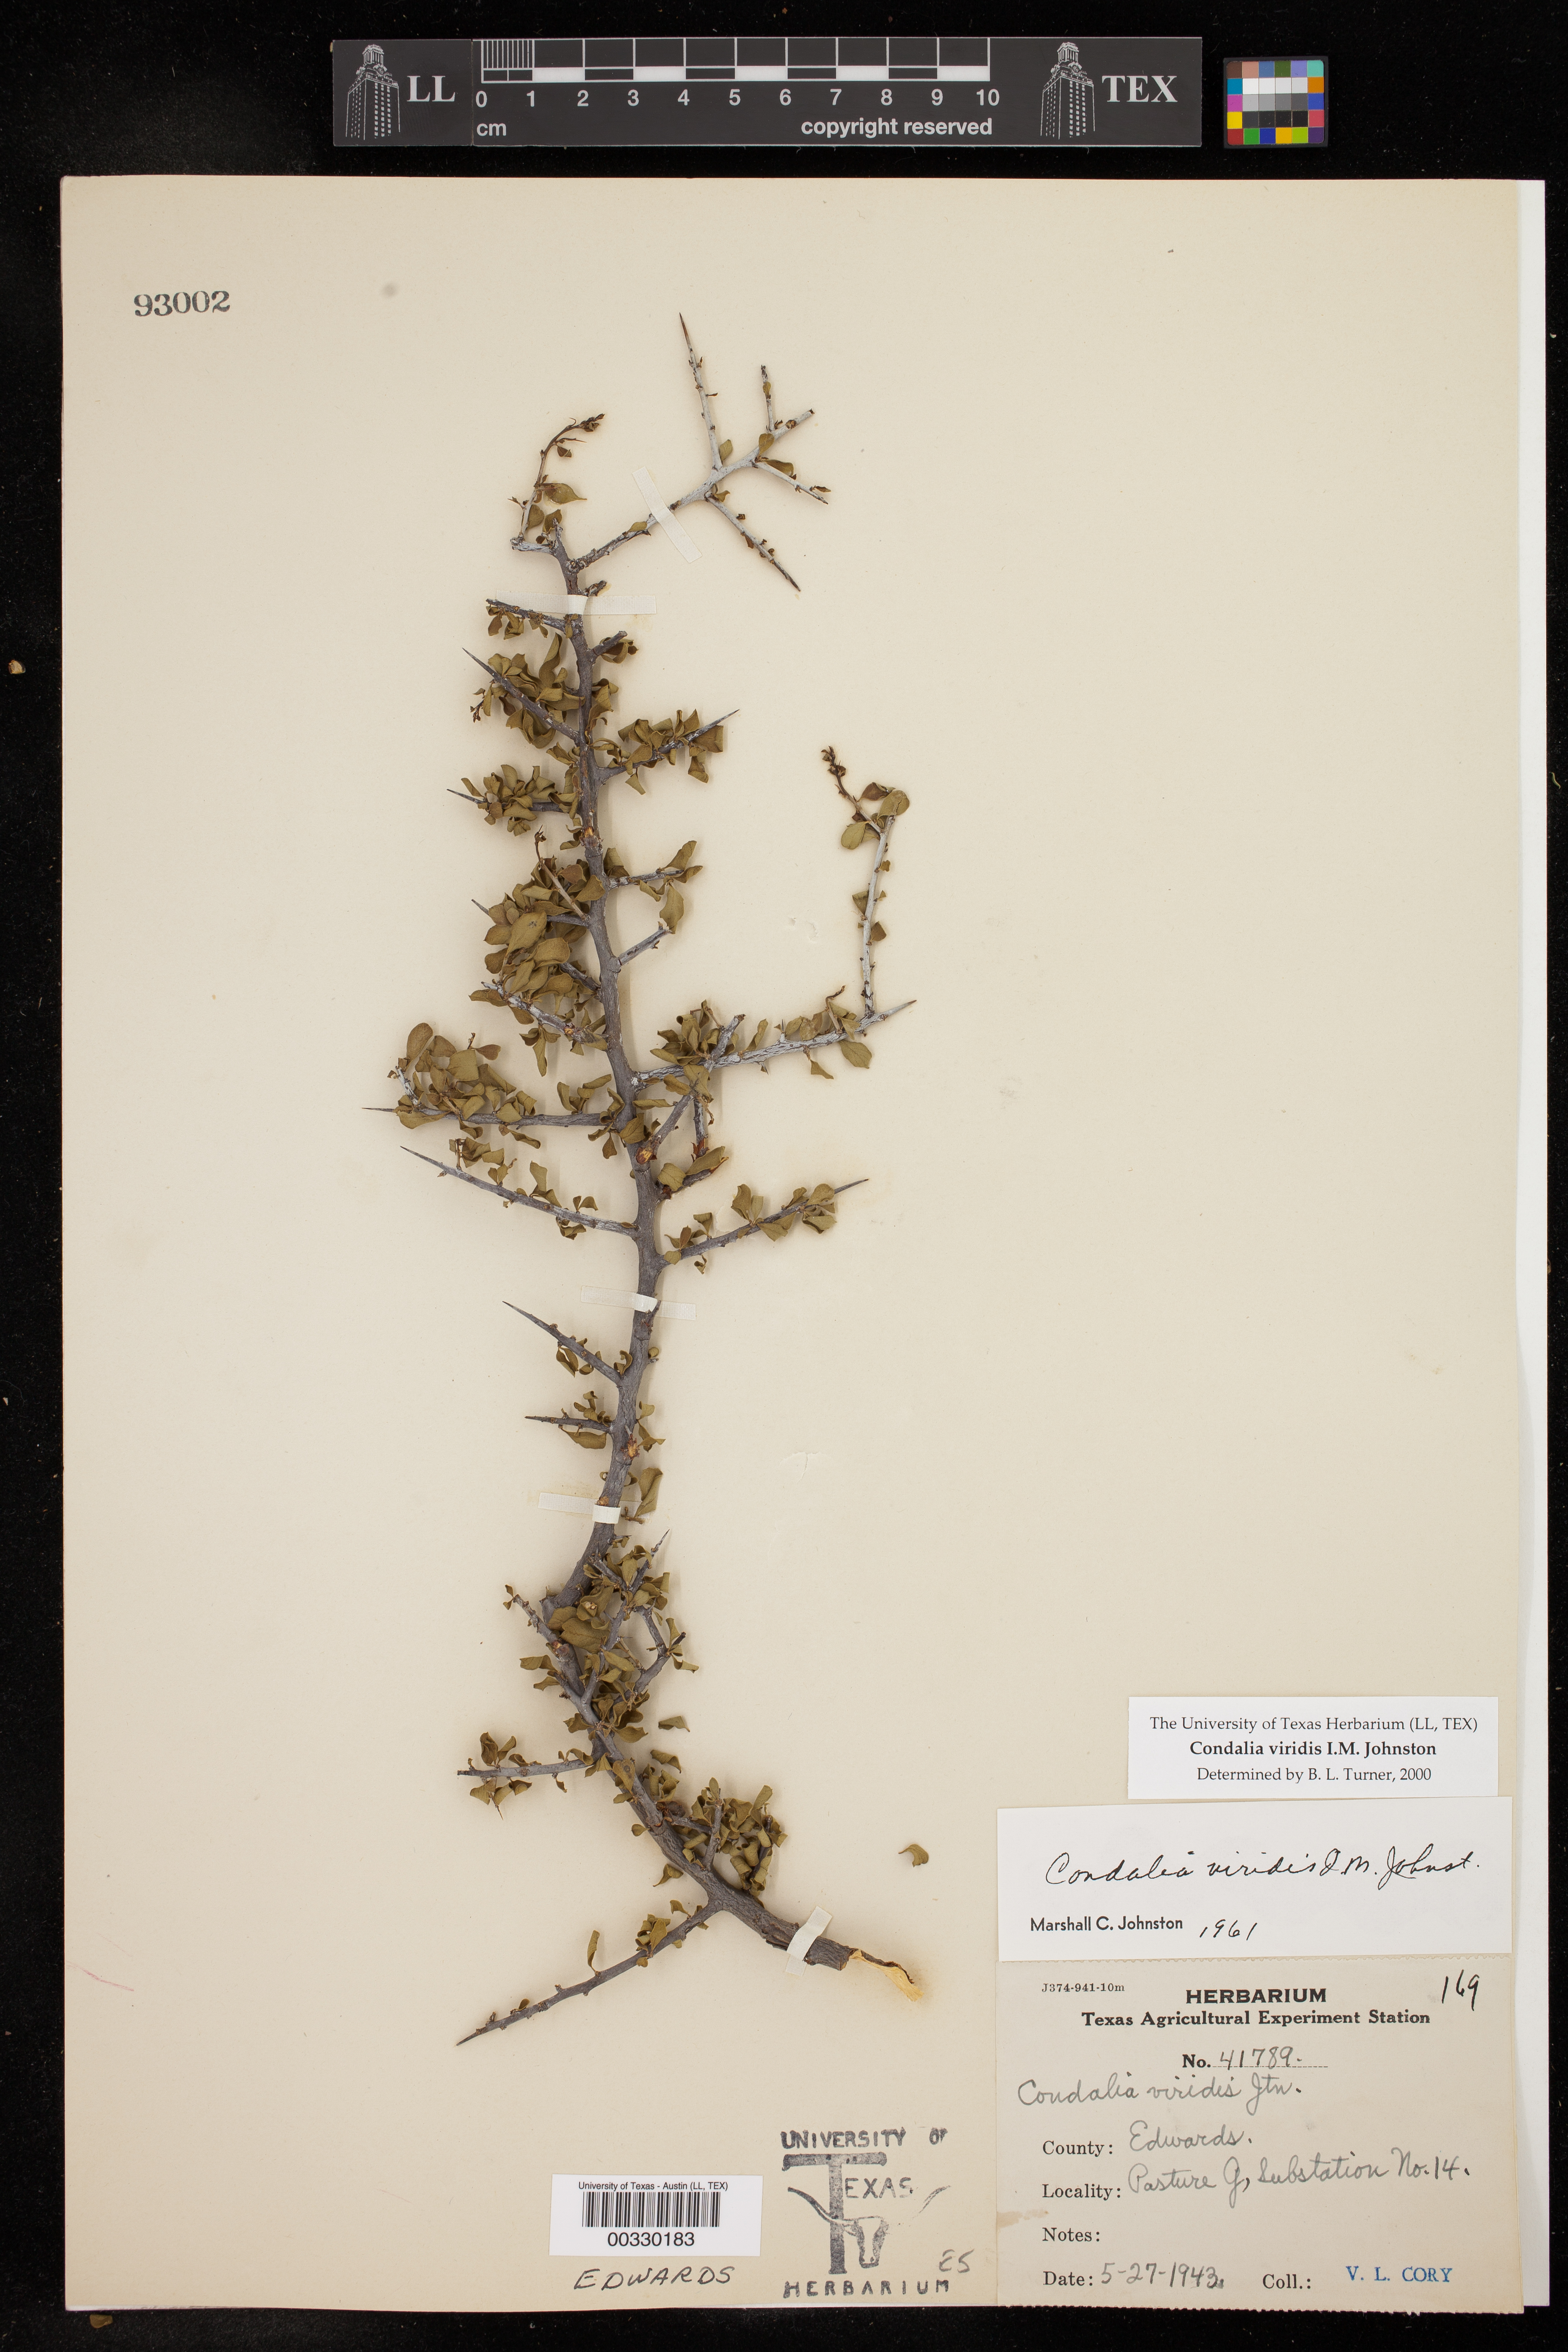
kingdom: Plantae
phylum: Tracheophyta
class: Magnoliopsida
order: Rosales
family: Rhamnaceae
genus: Condalia
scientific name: Condalia viridis
